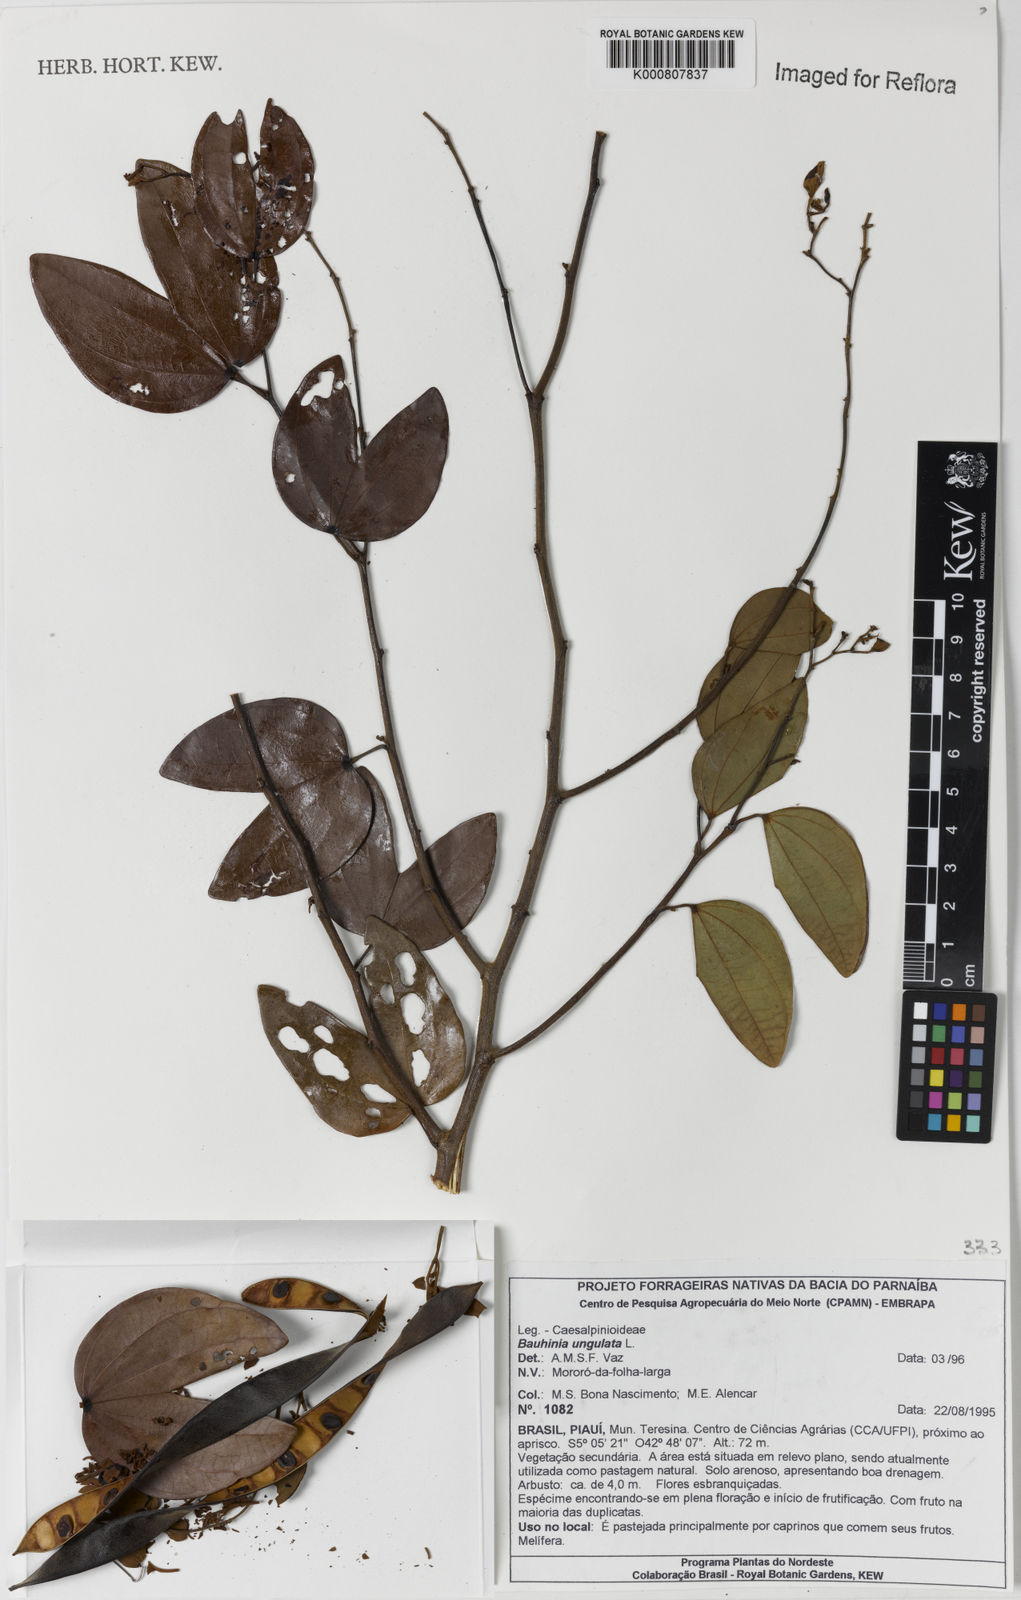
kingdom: Plantae
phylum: Tracheophyta
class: Magnoliopsida
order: Fabales
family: Fabaceae
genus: Bauhinia
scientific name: Bauhinia ungulata
